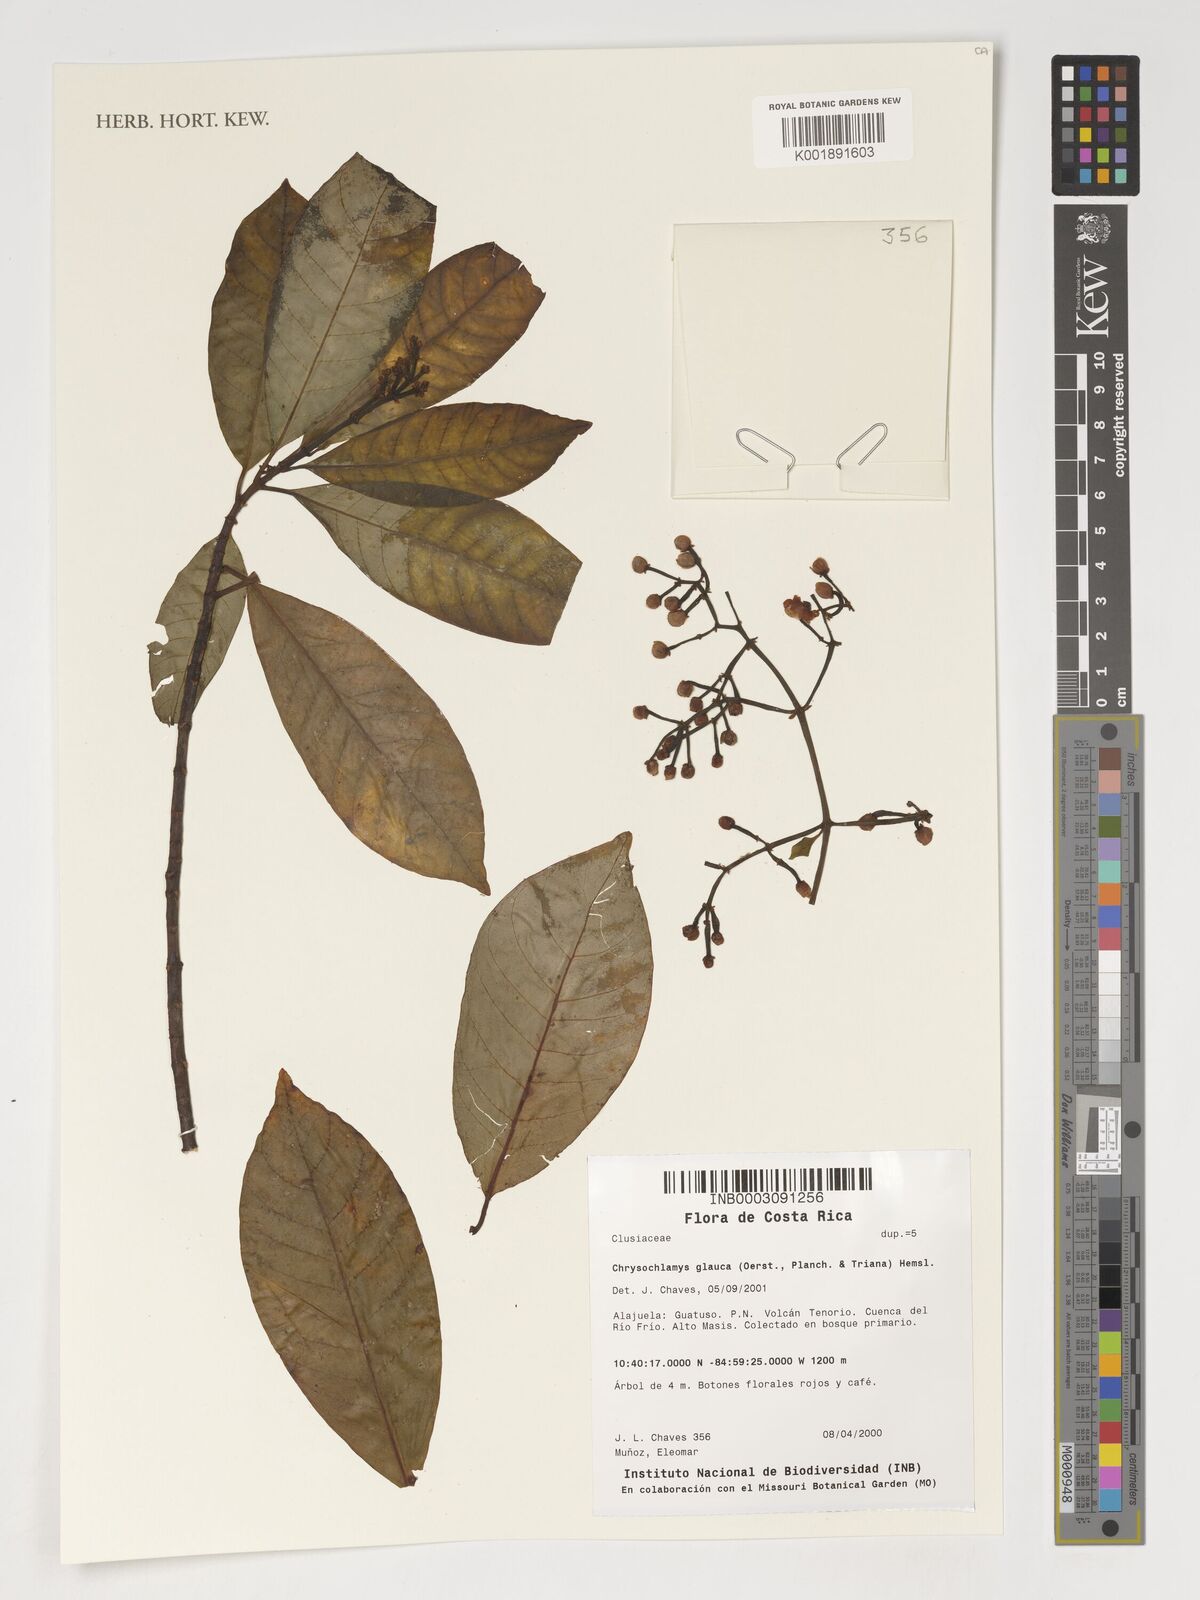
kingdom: Plantae
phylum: Tracheophyta
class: Magnoliopsida
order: Malpighiales
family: Clusiaceae
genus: Chrysochlamys
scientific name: Chrysochlamys glauca
